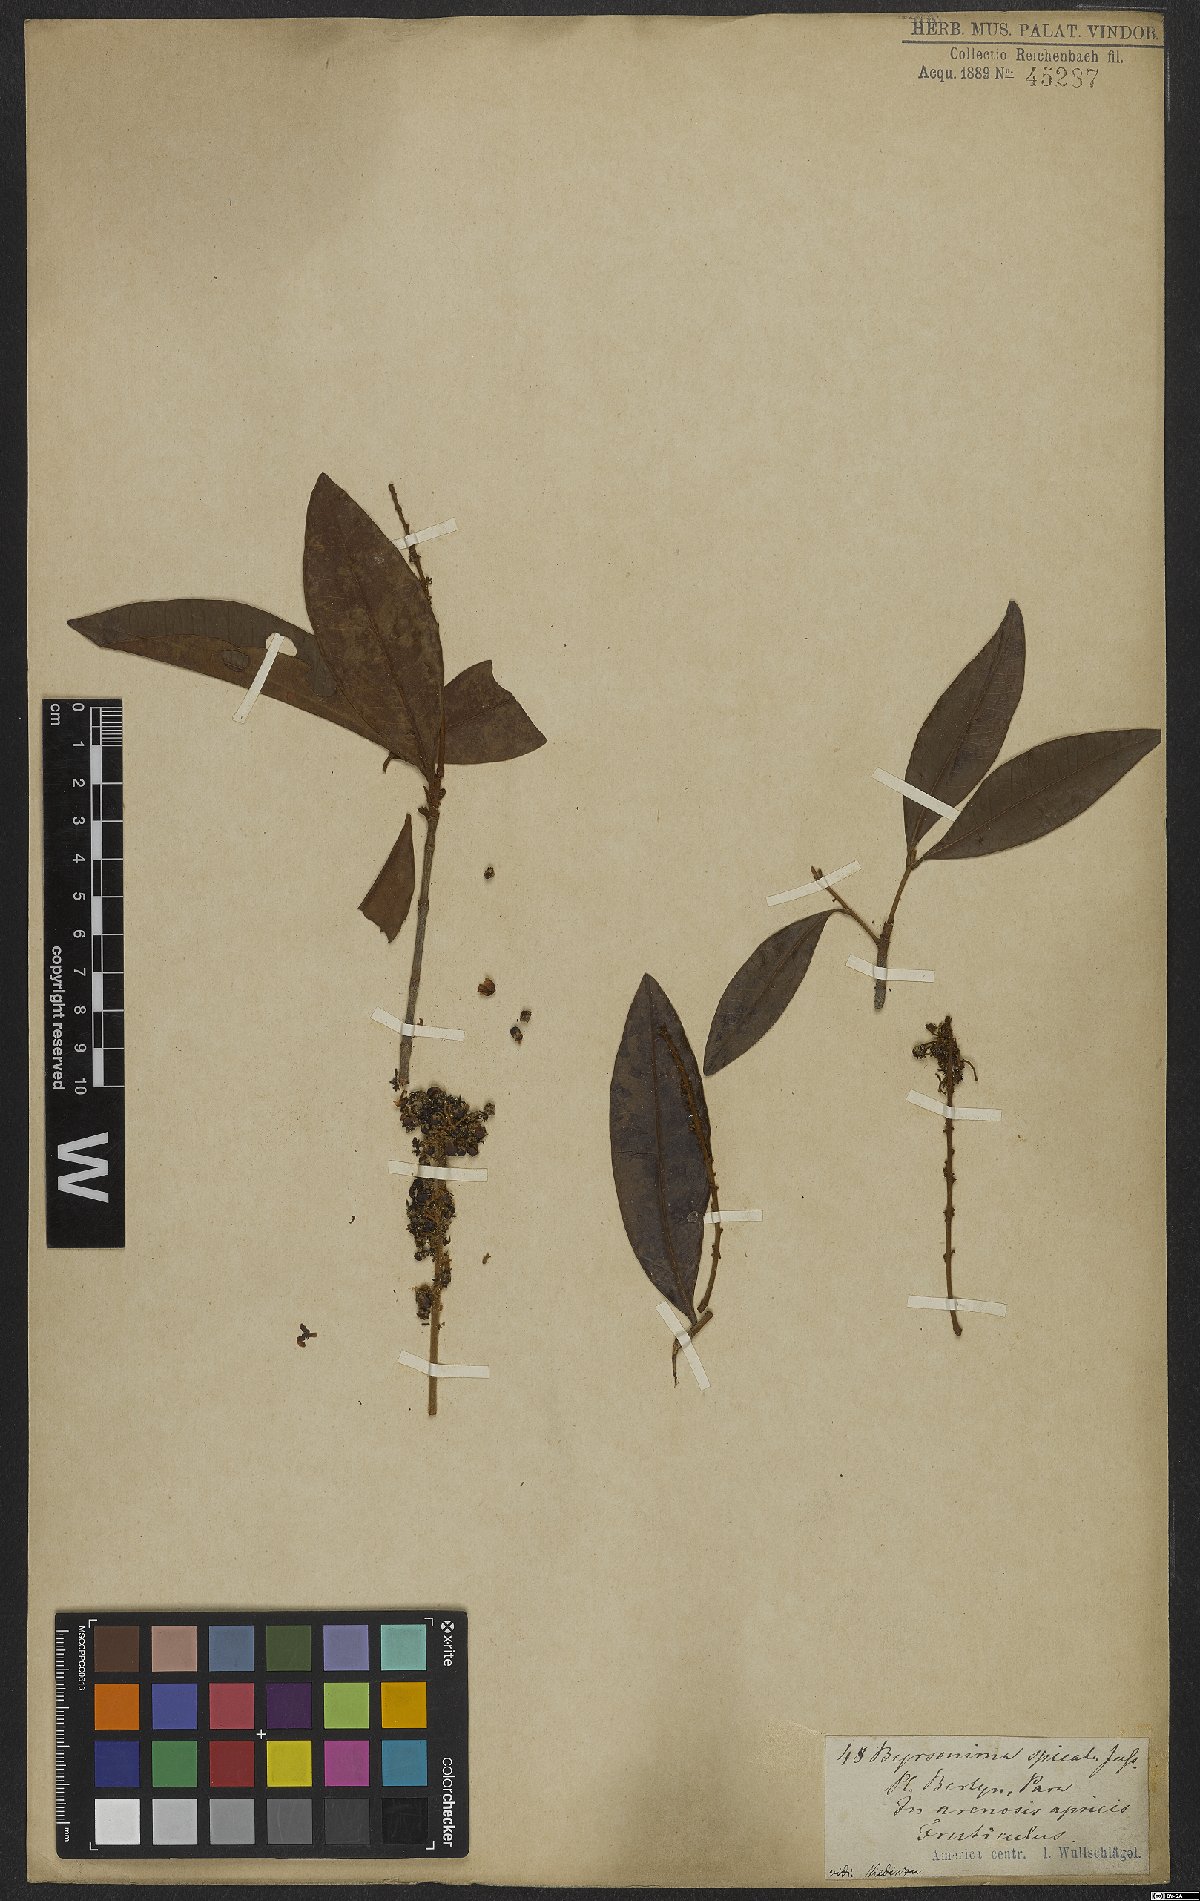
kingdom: Plantae
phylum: Tracheophyta
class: Magnoliopsida
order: Malpighiales
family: Malpighiaceae
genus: Byrsonima
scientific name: Byrsonima crassifolia
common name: Golden spoon
